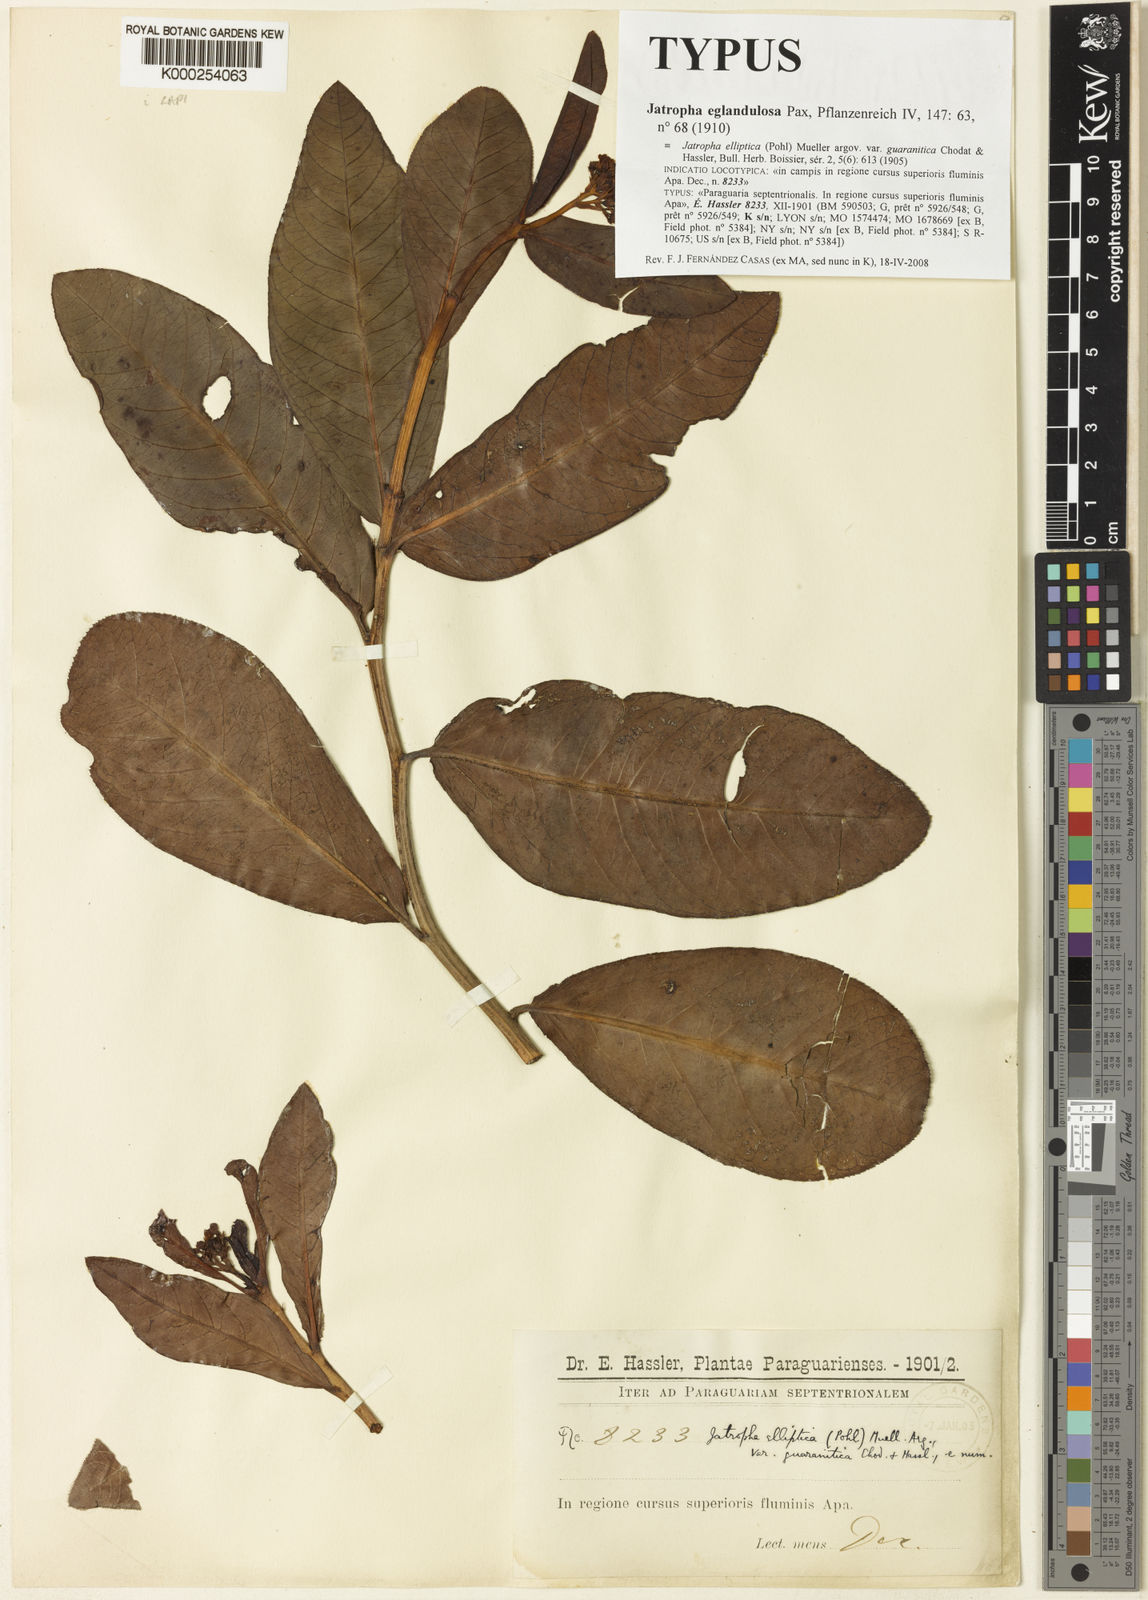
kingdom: Plantae
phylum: Tracheophyta
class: Magnoliopsida
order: Malpighiales
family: Euphorbiaceae
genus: Jatropha
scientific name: Jatropha elliptica
